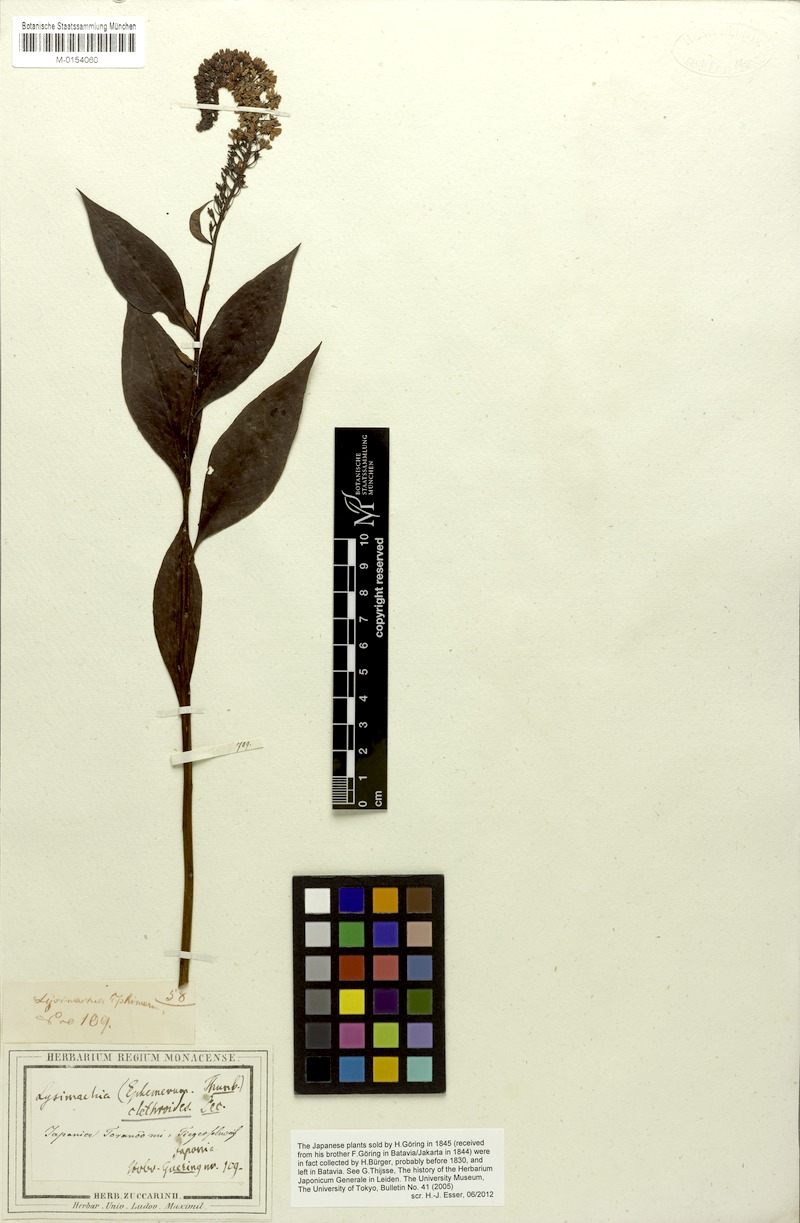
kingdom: Plantae
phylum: Tracheophyta
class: Magnoliopsida
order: Ericales
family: Primulaceae
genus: Lysimachia
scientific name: Lysimachia clethroides
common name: Gooseneck loosestrife
